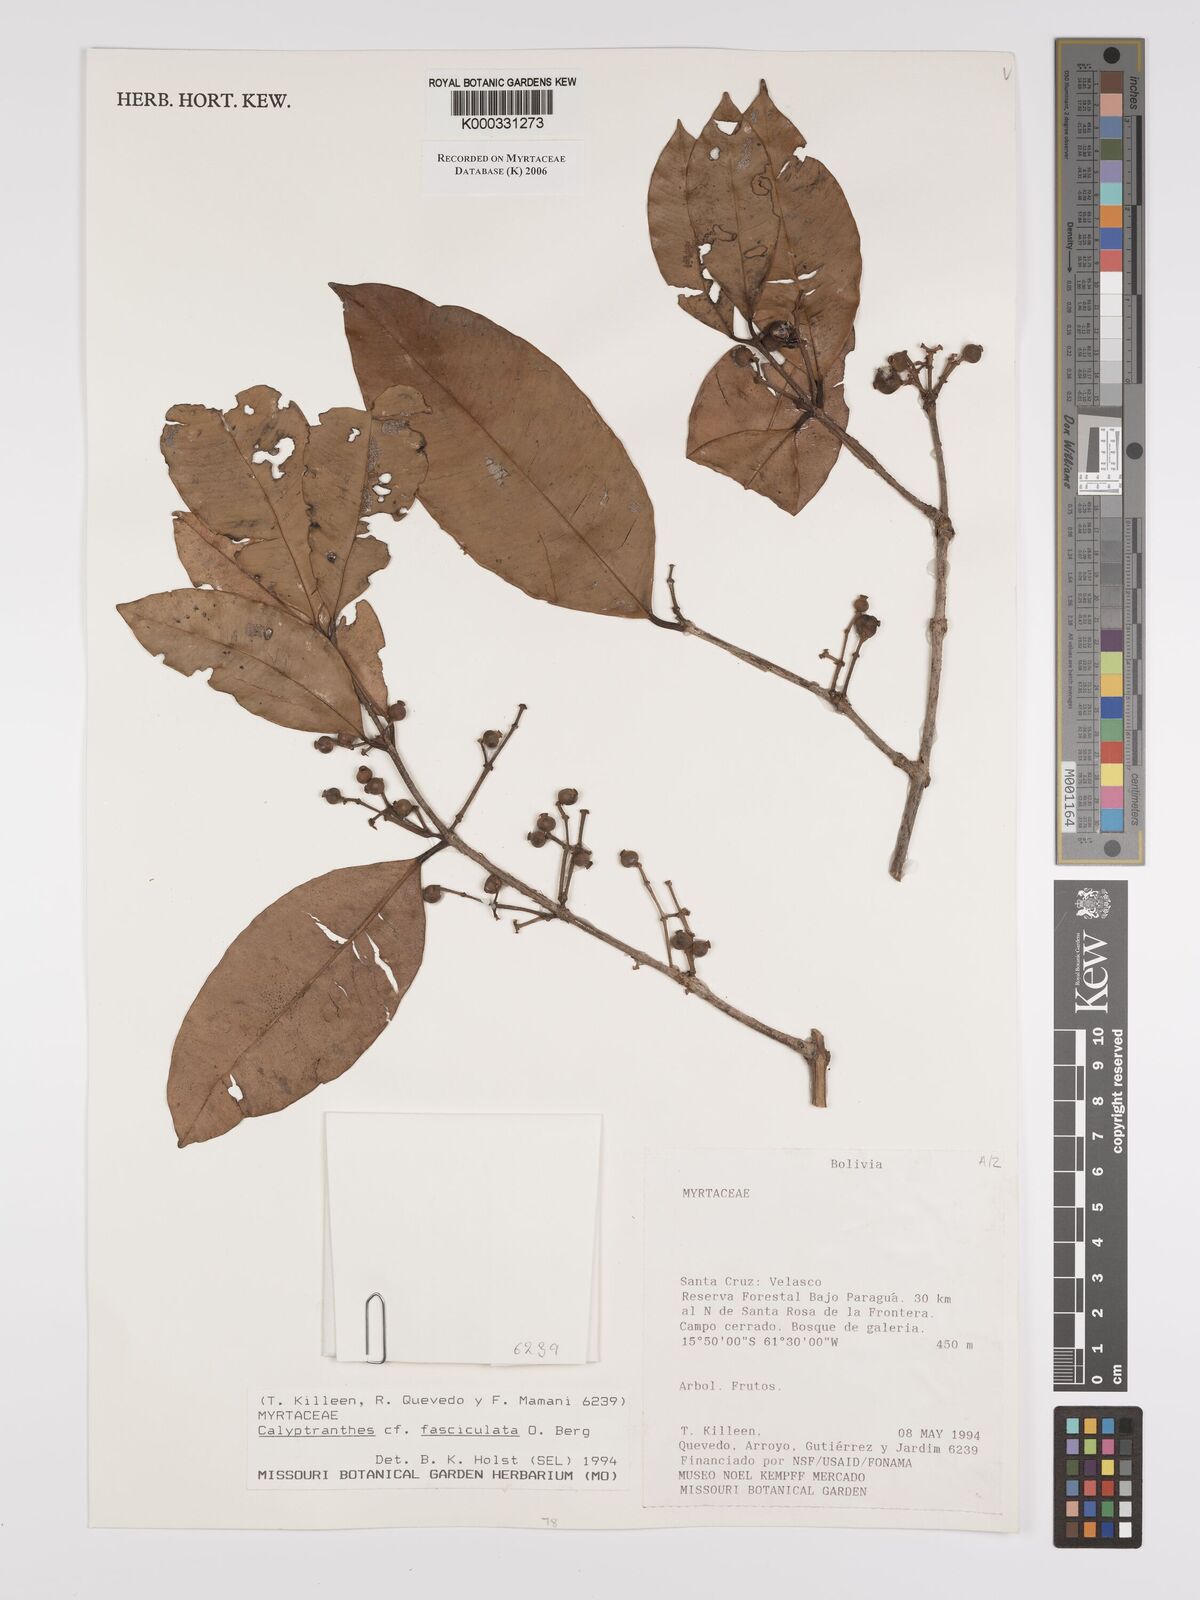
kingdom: Plantae
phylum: Tracheophyta
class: Magnoliopsida
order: Myrtales
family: Myrtaceae
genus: Myrcia
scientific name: Myrcia fasciculata
